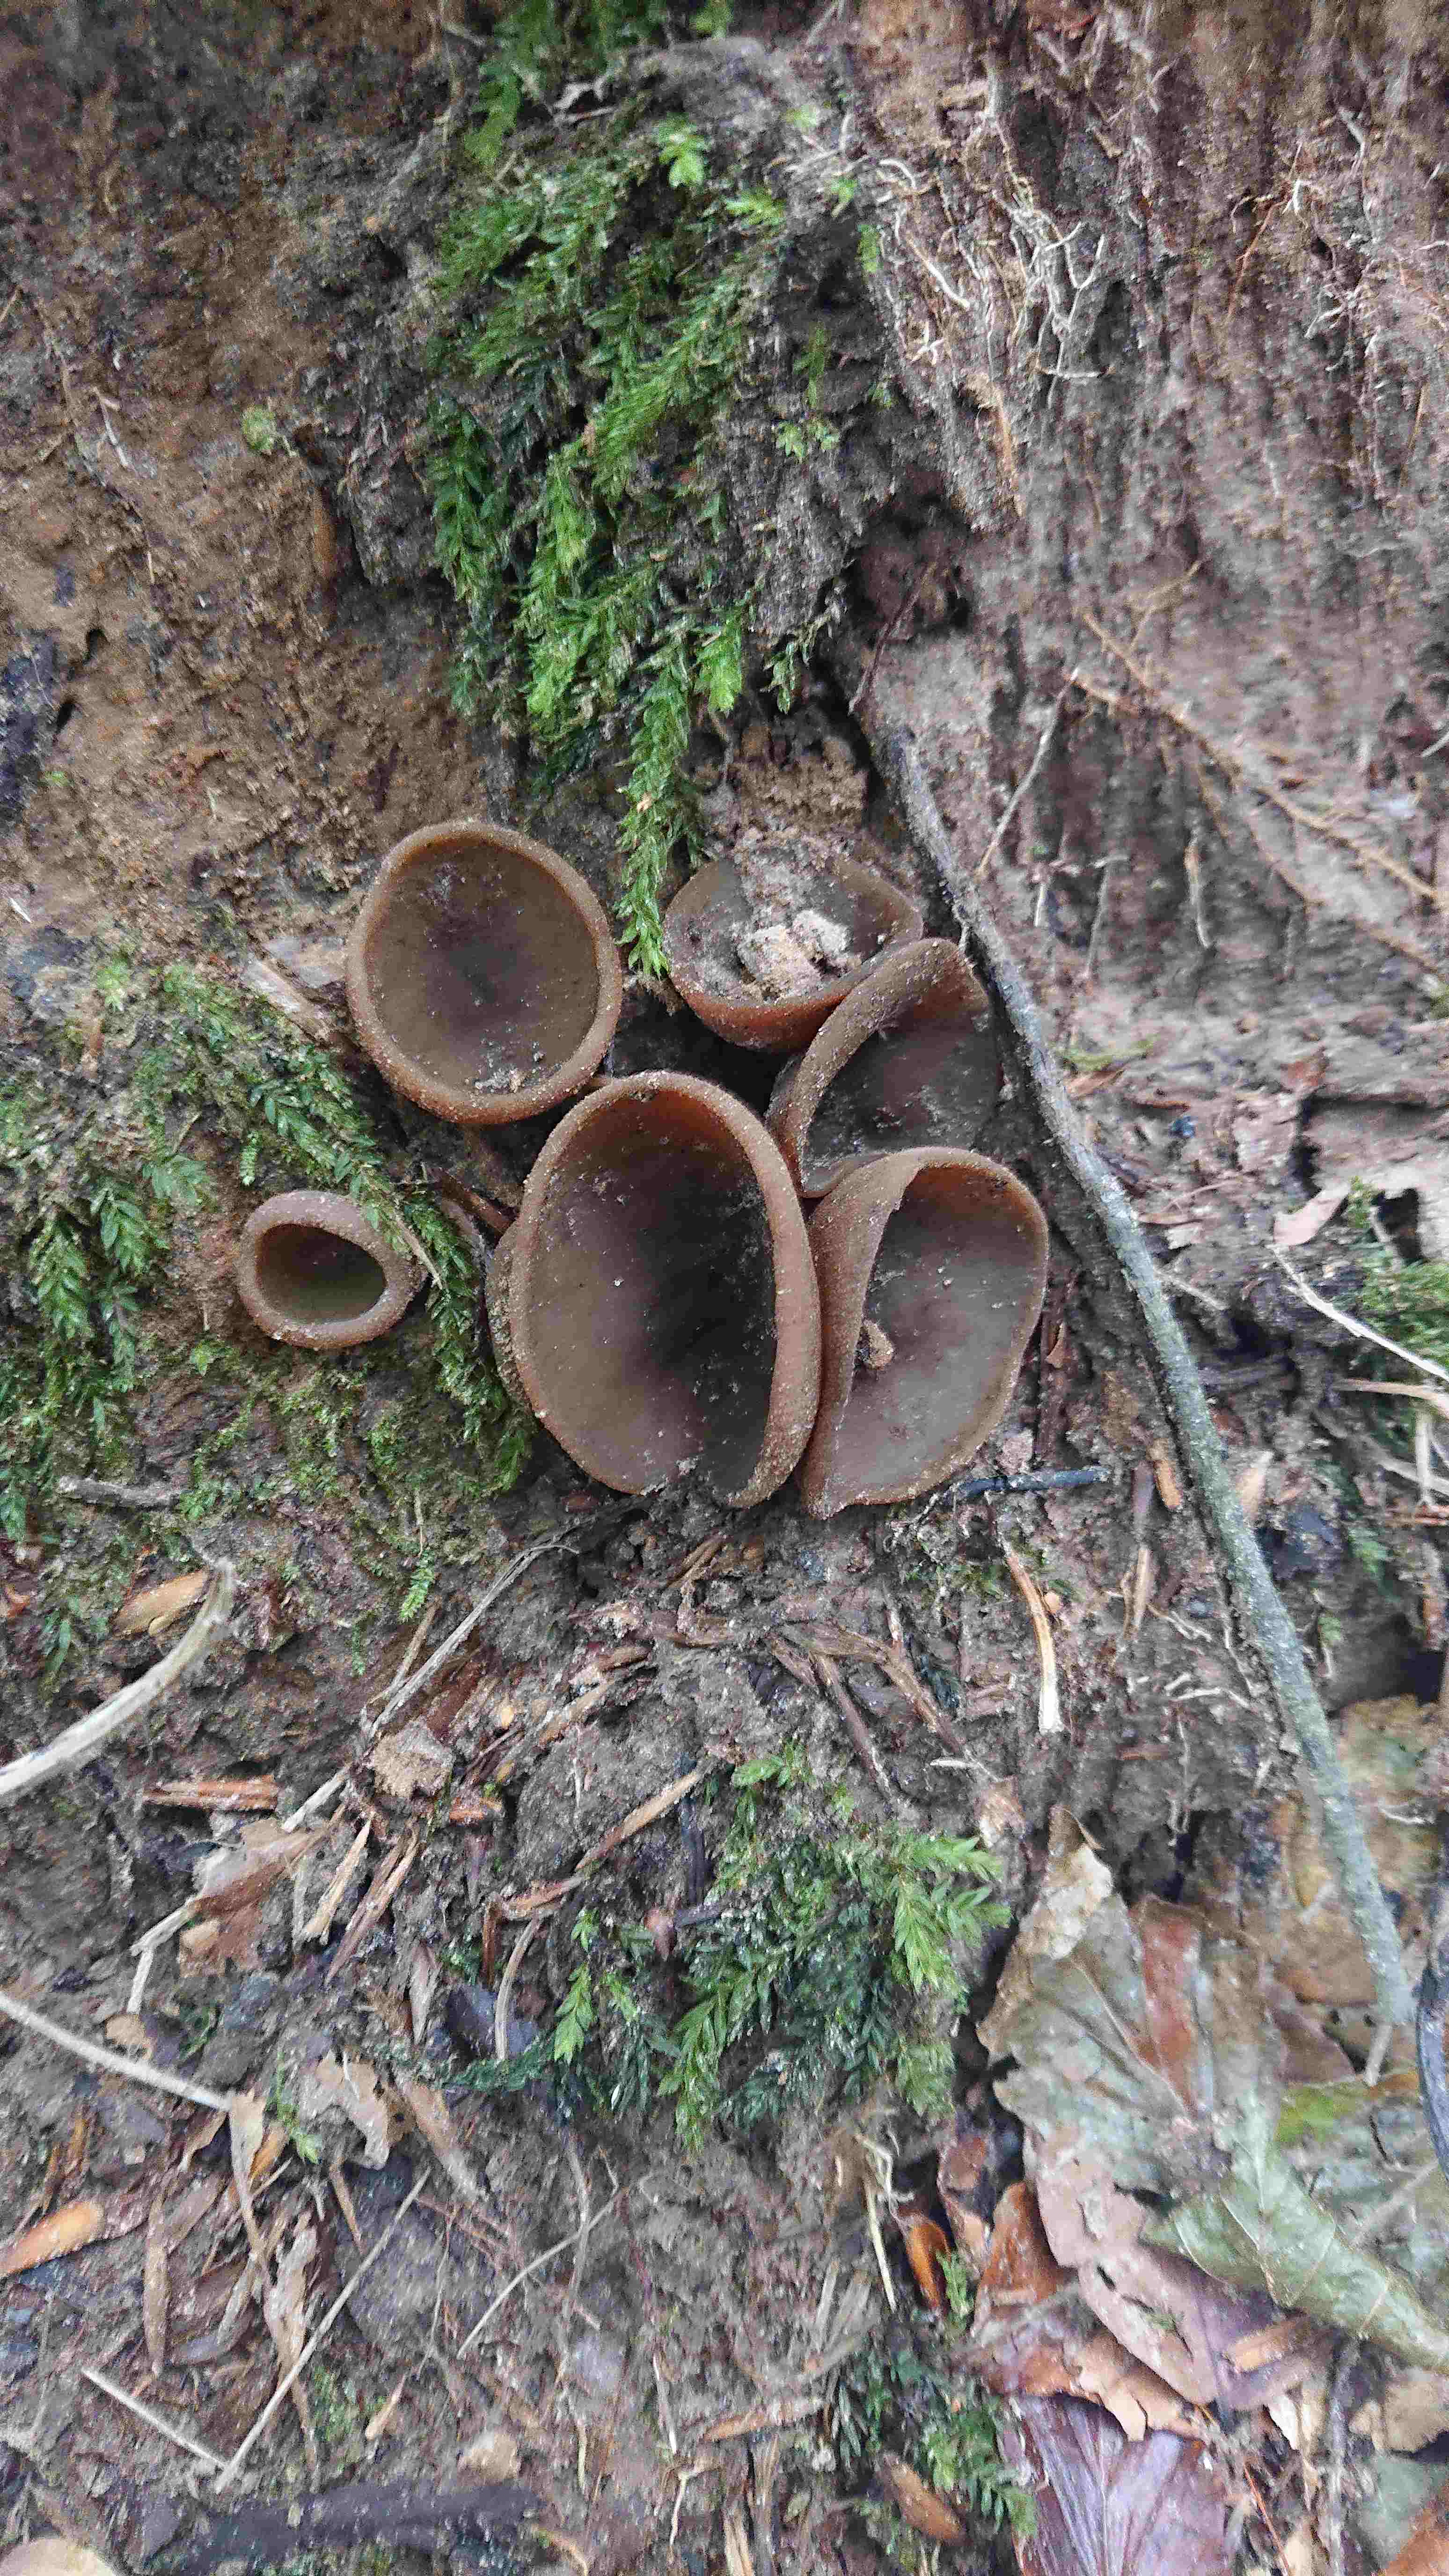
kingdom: Fungi
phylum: Ascomycota
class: Pezizomycetes
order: Pezizales
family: Pezizaceae
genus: Peziza
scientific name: Peziza
